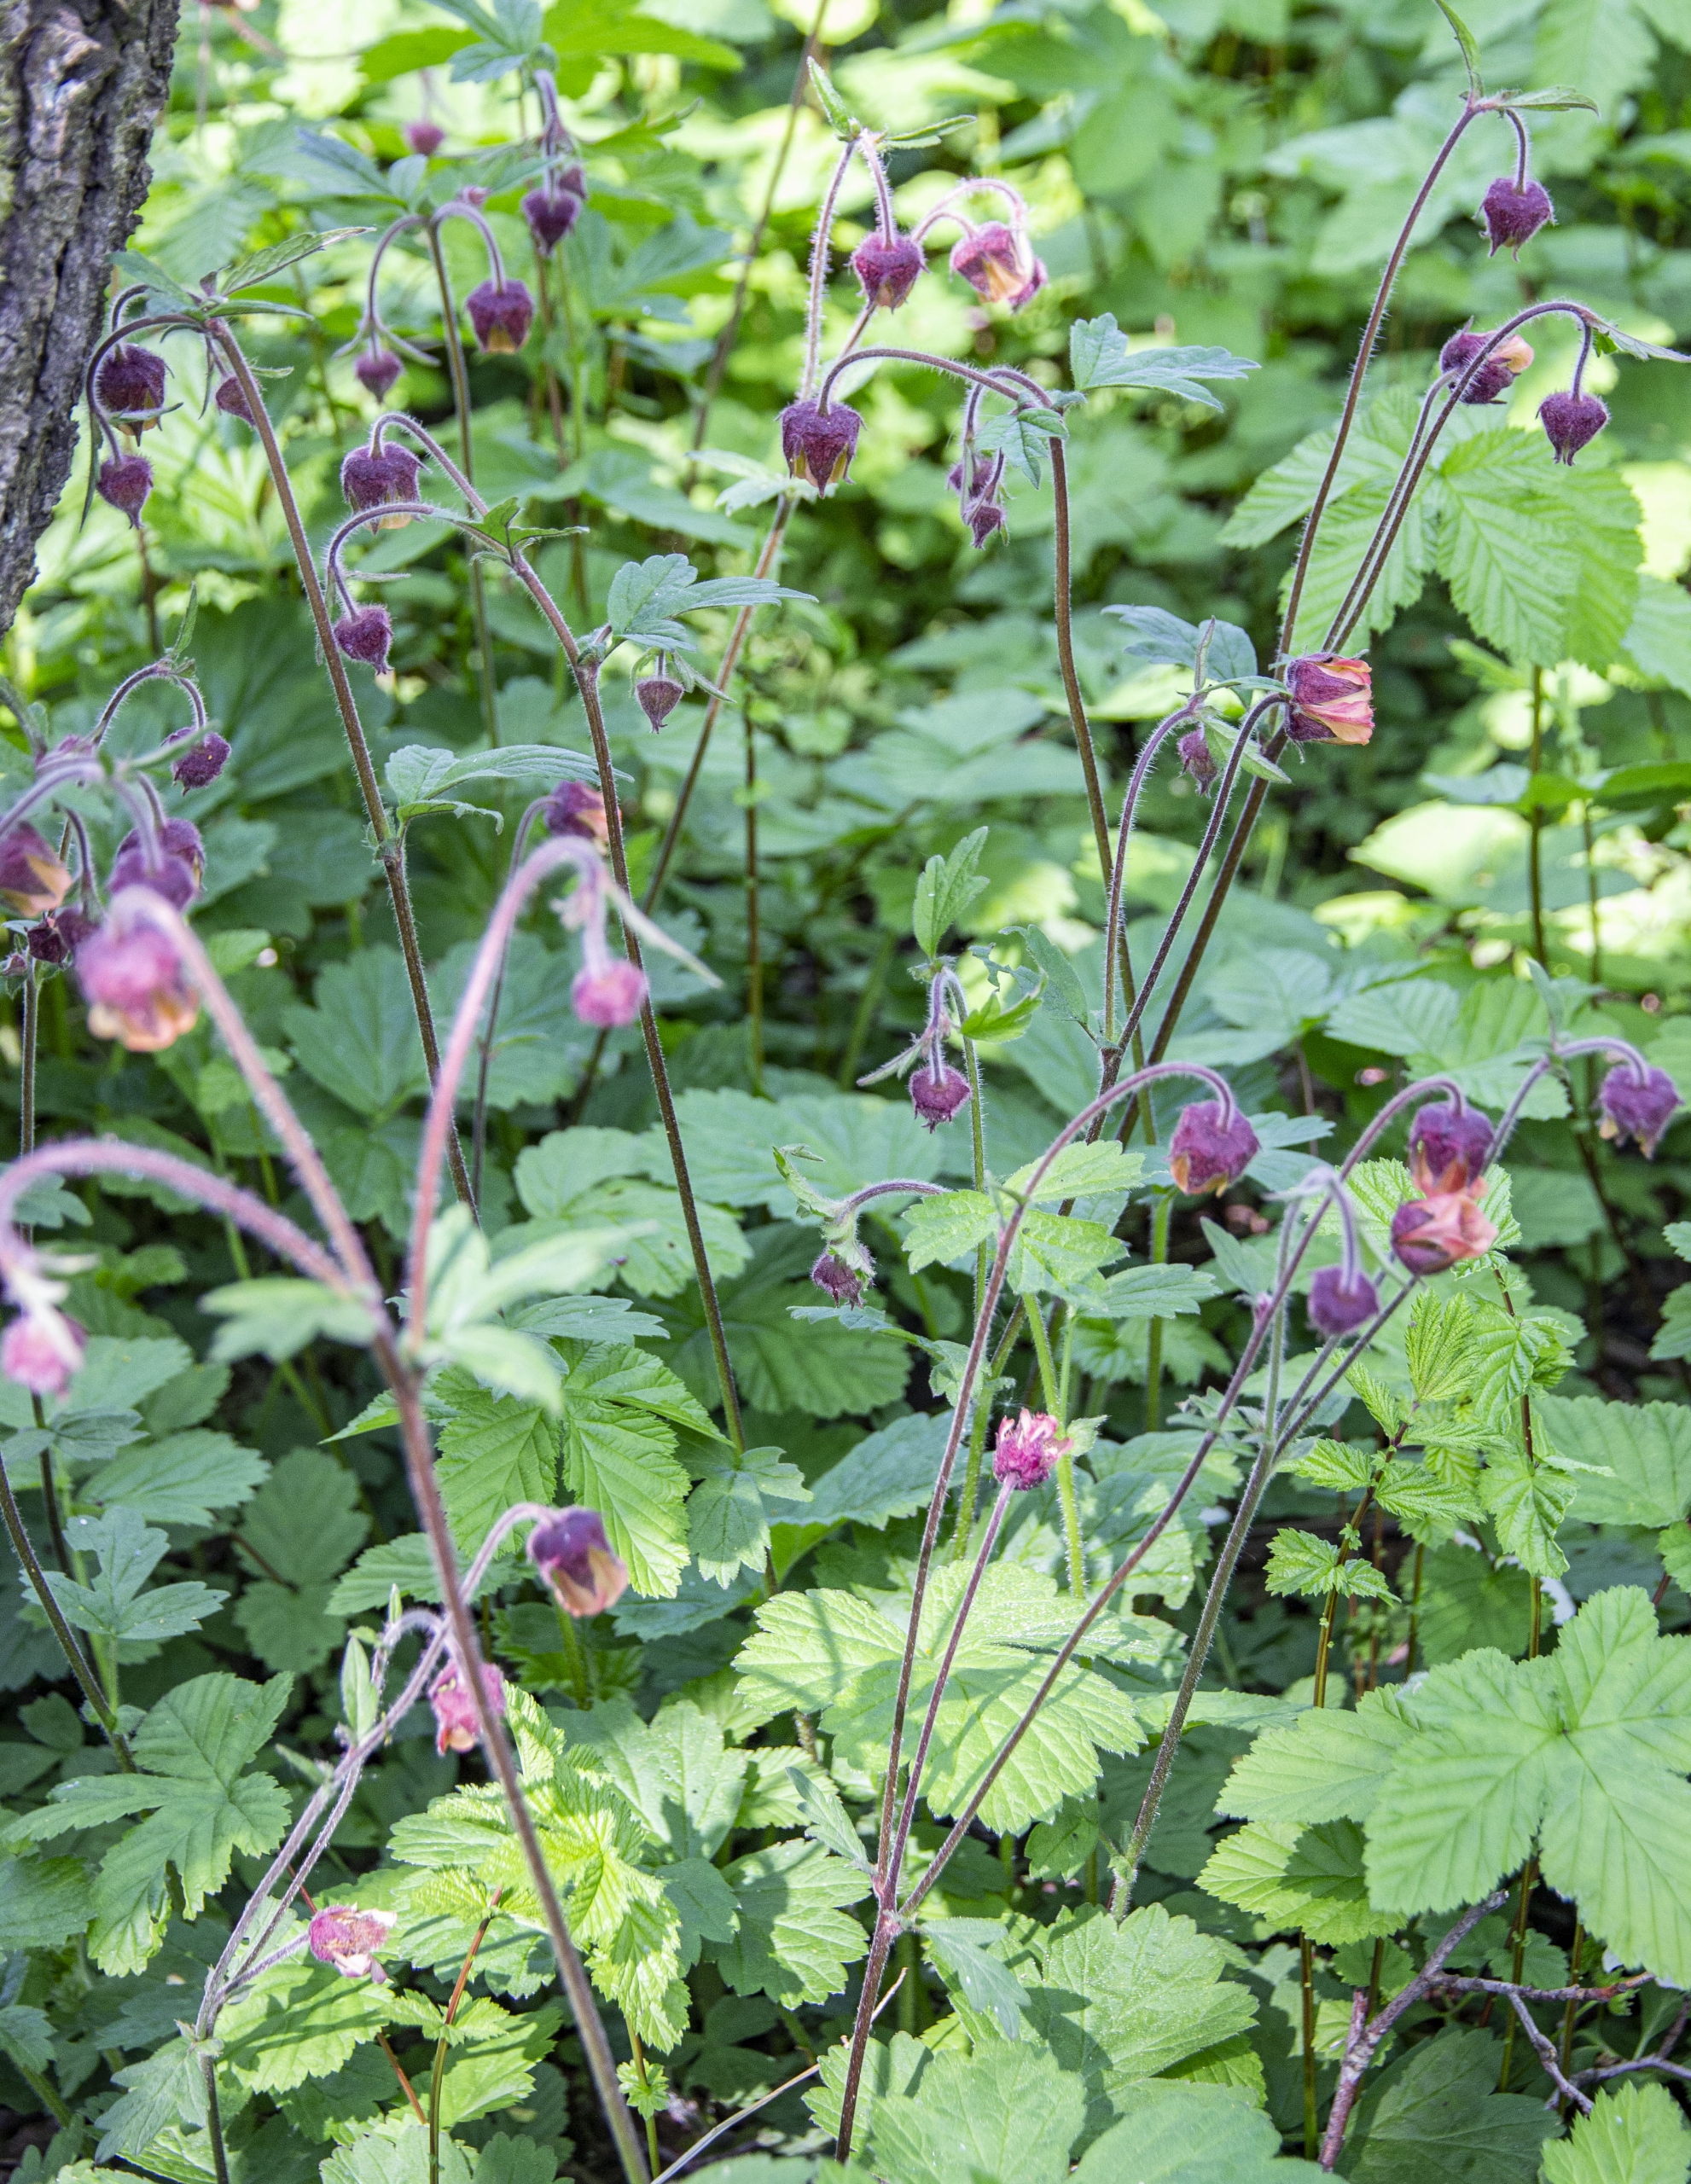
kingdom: Plantae
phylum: Tracheophyta
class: Magnoliopsida
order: Rosales
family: Rosaceae
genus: Geum
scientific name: Geum rivale
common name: Eng-nellikerod
